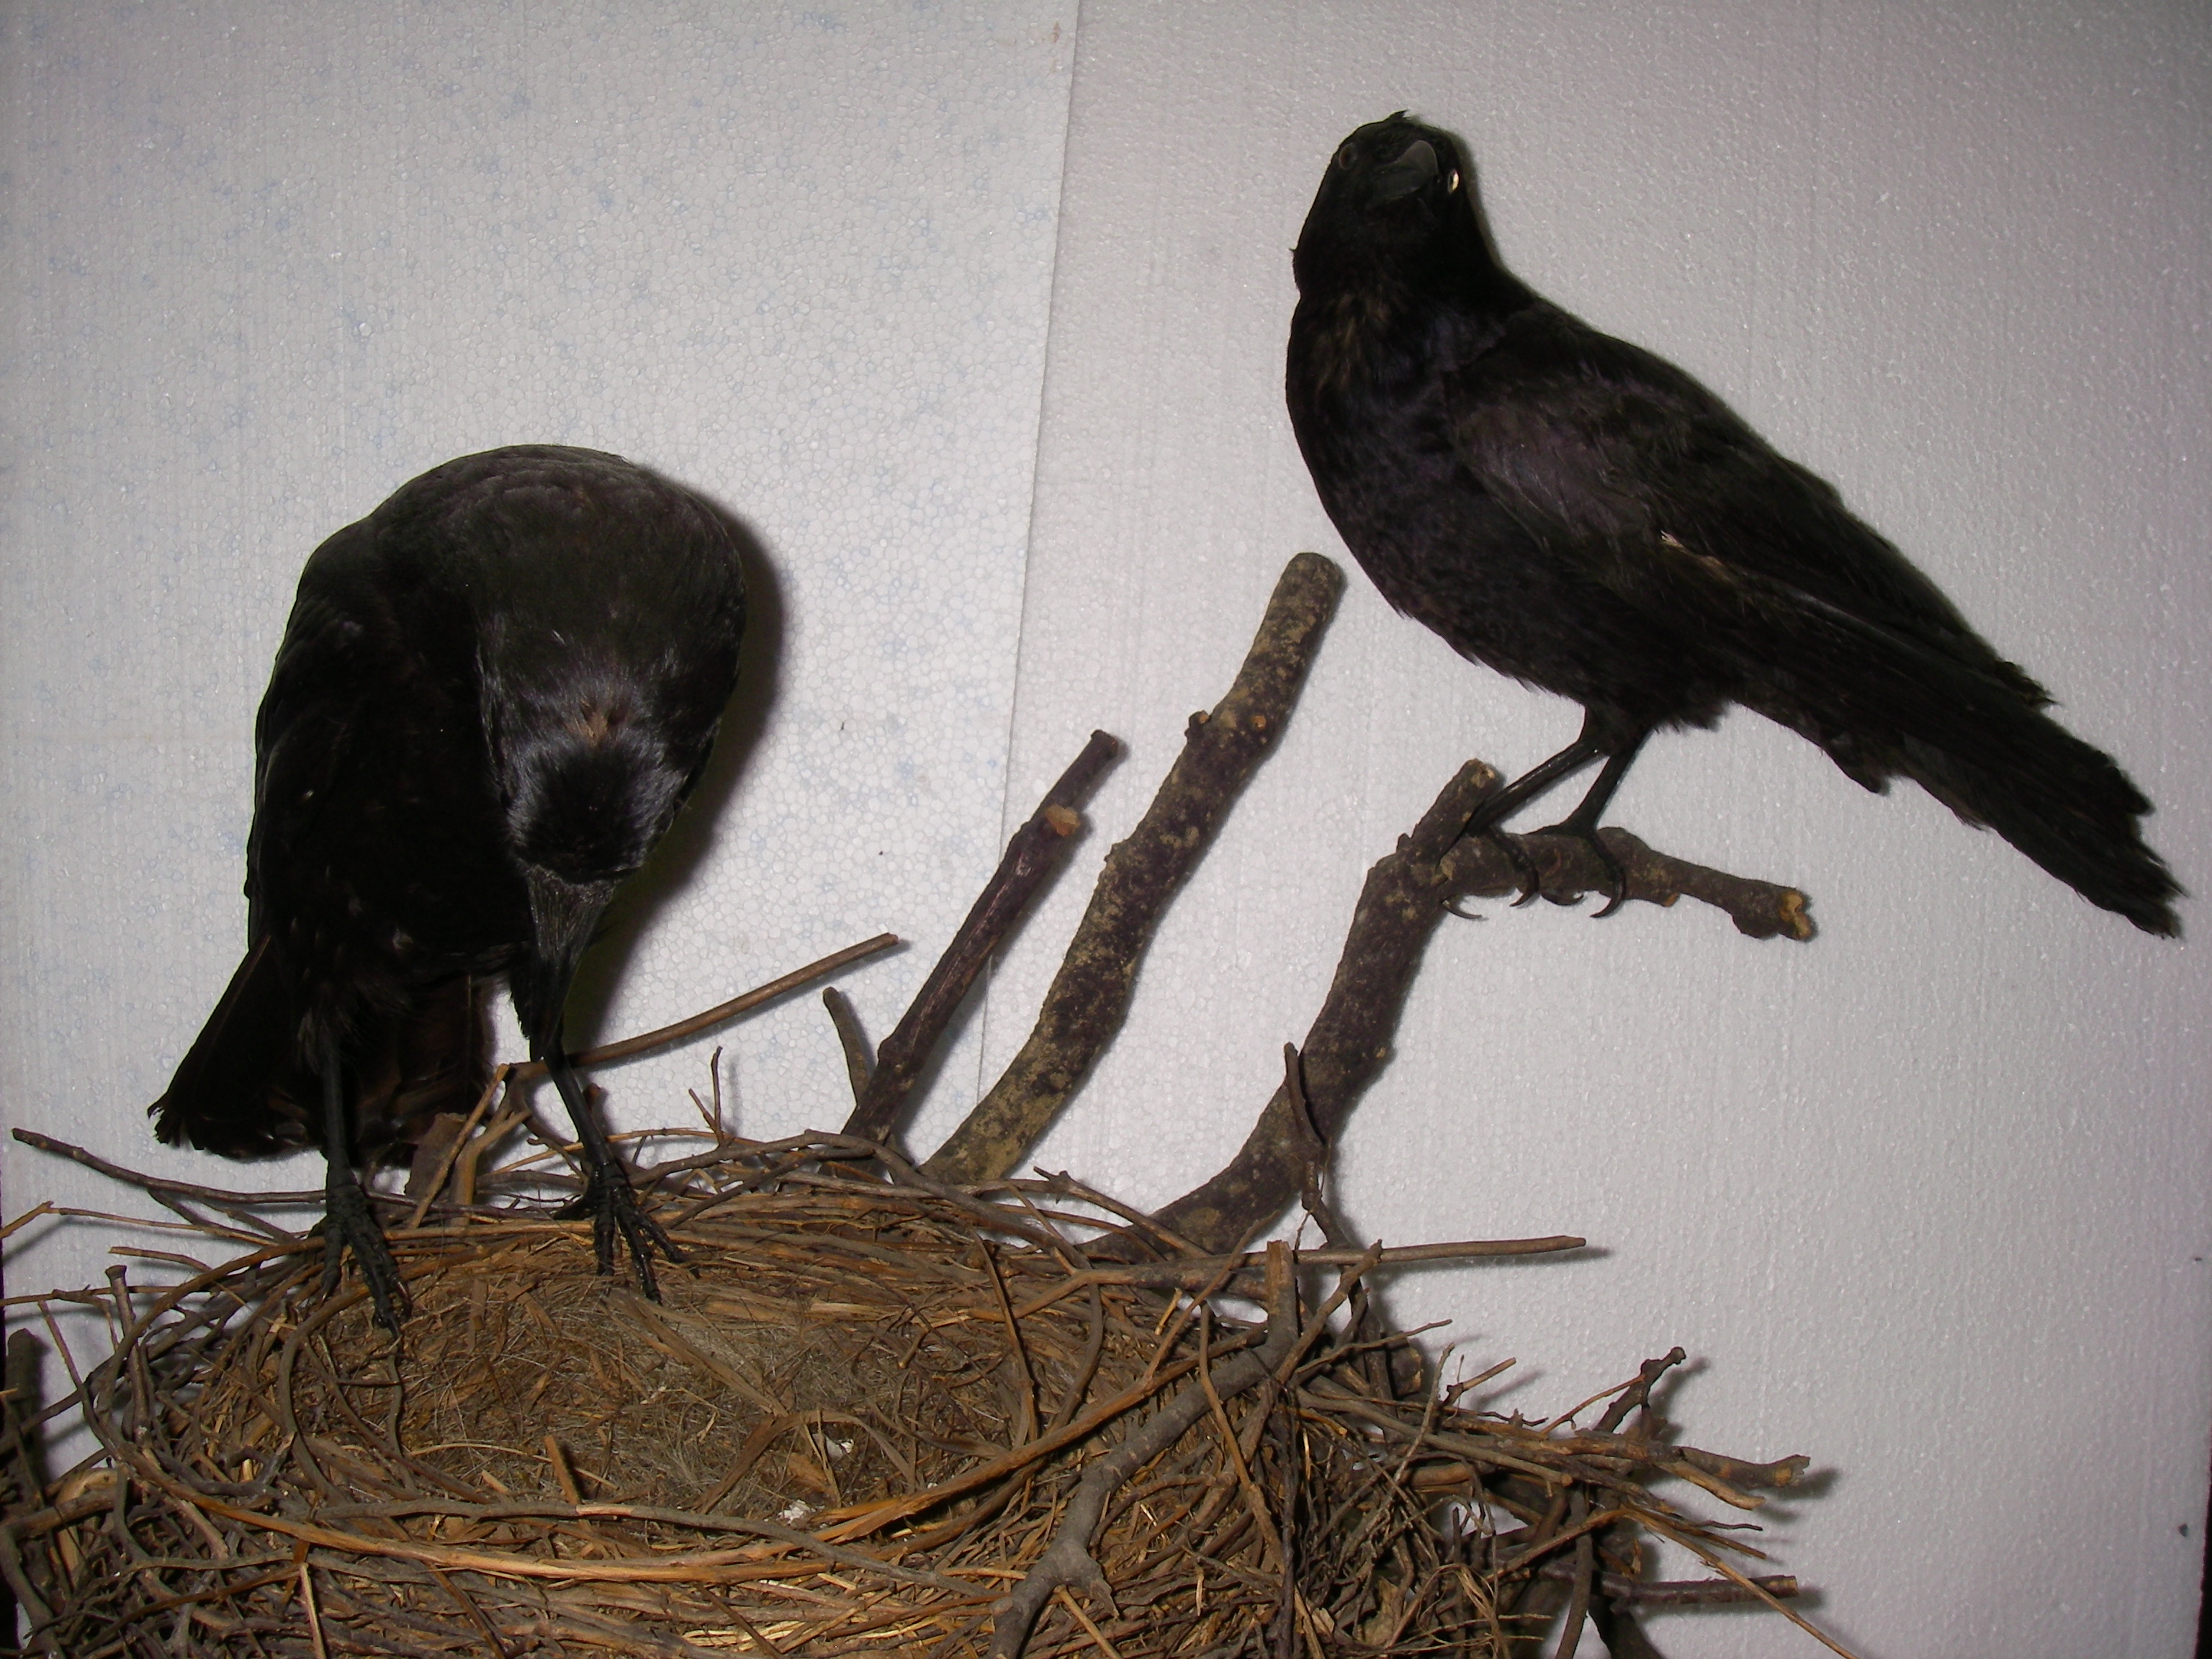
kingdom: Animalia
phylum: Chordata
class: Aves
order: Passeriformes
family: Corvidae
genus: Corvus
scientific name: Corvus corone
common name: Carrion crow
